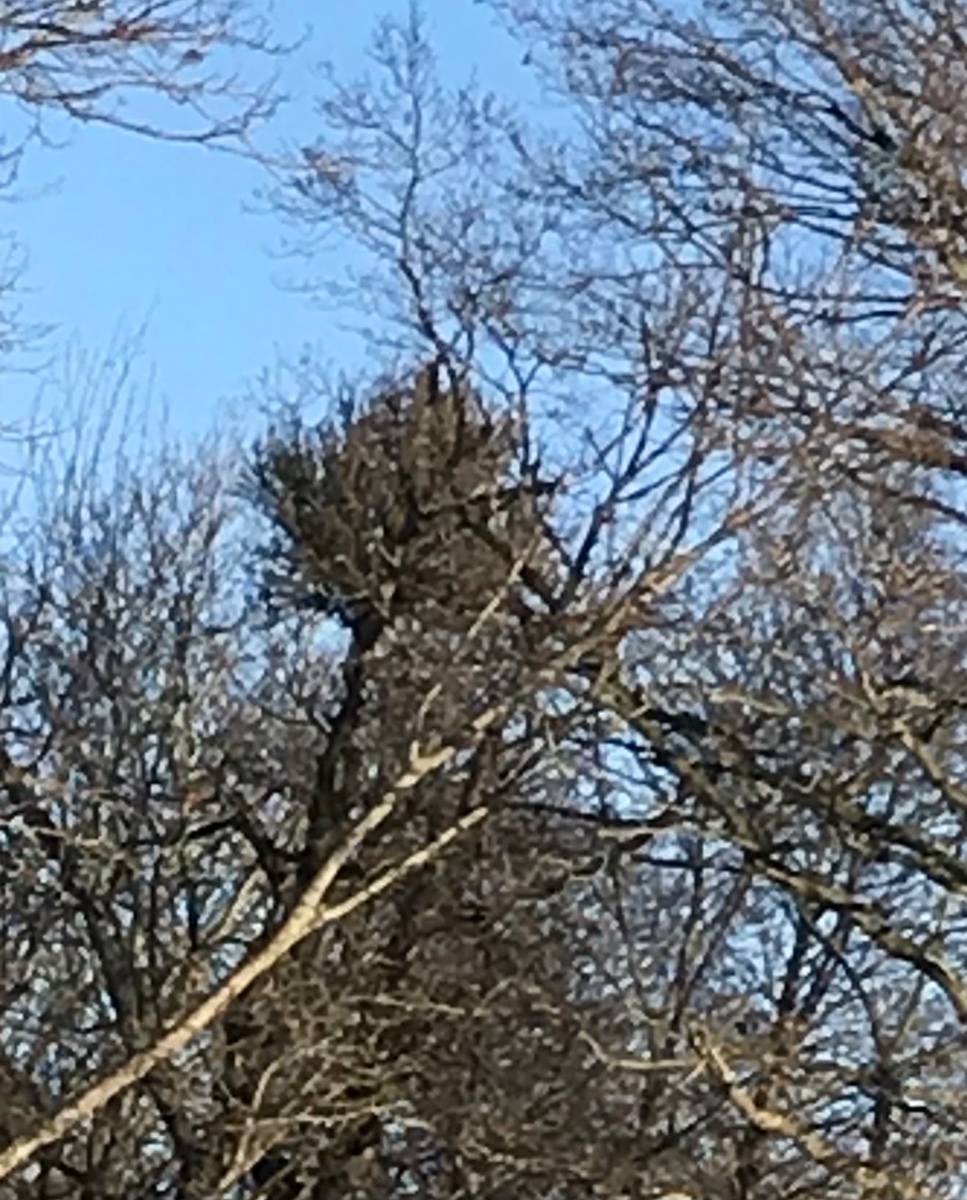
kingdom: Fungi
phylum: Ascomycota
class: Taphrinomycetes
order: Taphrinales
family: Taphrinaceae
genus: Taphrina
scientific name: Taphrina wiesneri
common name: Cherry leaf curl
